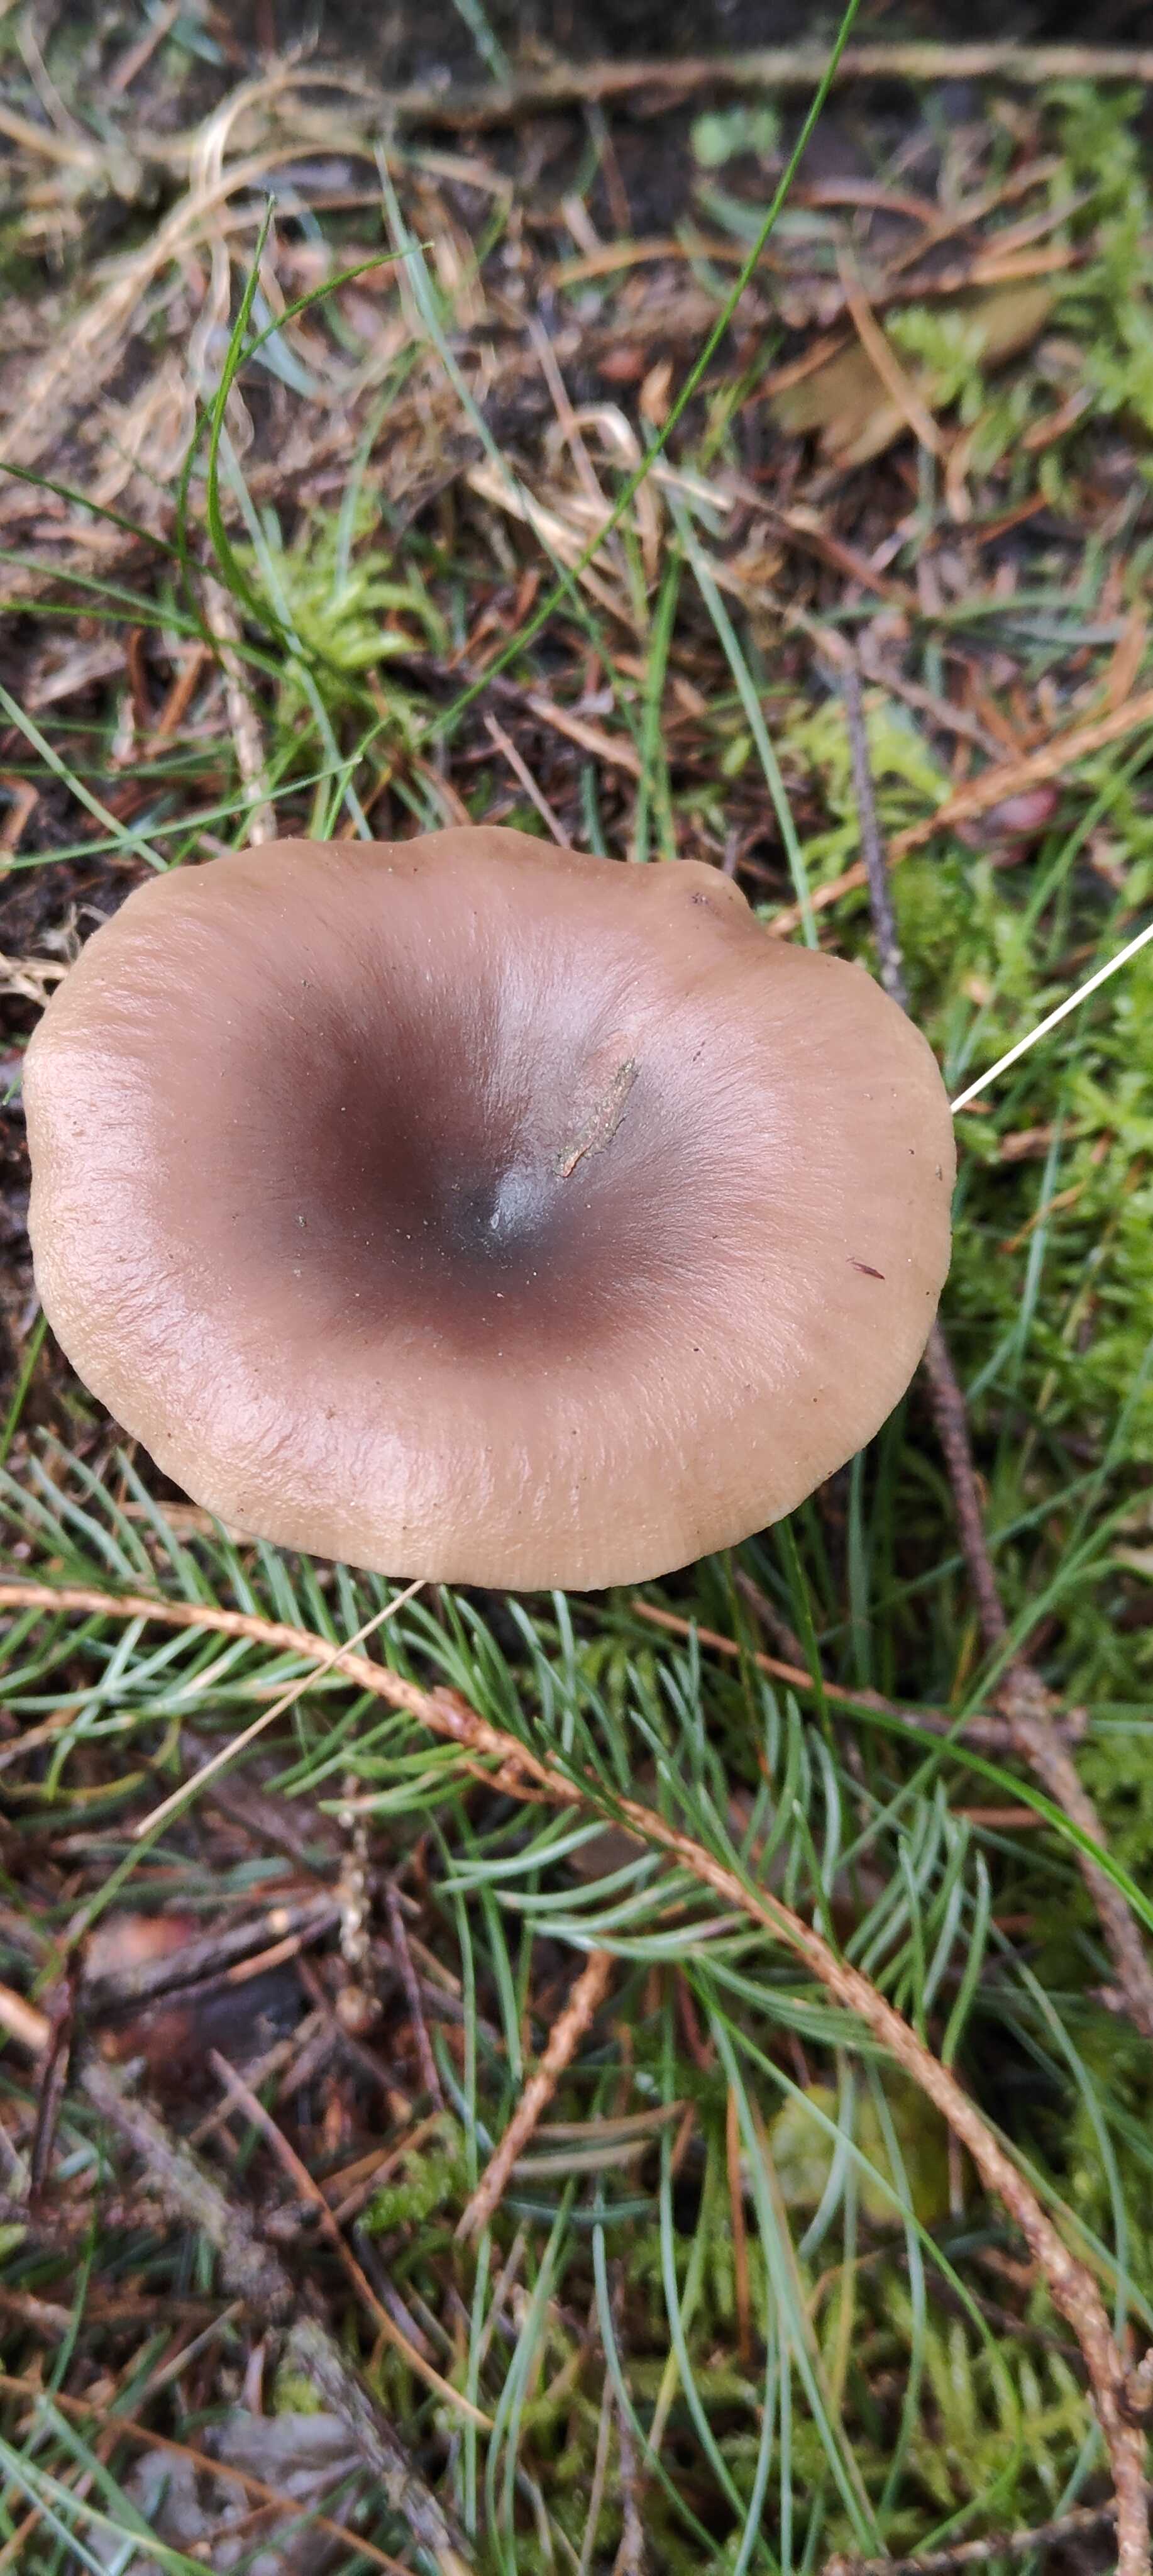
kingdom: Fungi
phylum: Basidiomycota
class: Agaricomycetes
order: Agaricales
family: Pseudoclitocybaceae
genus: Pseudoclitocybe
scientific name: Pseudoclitocybe cyathiformis
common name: almindelig bægertragthat
